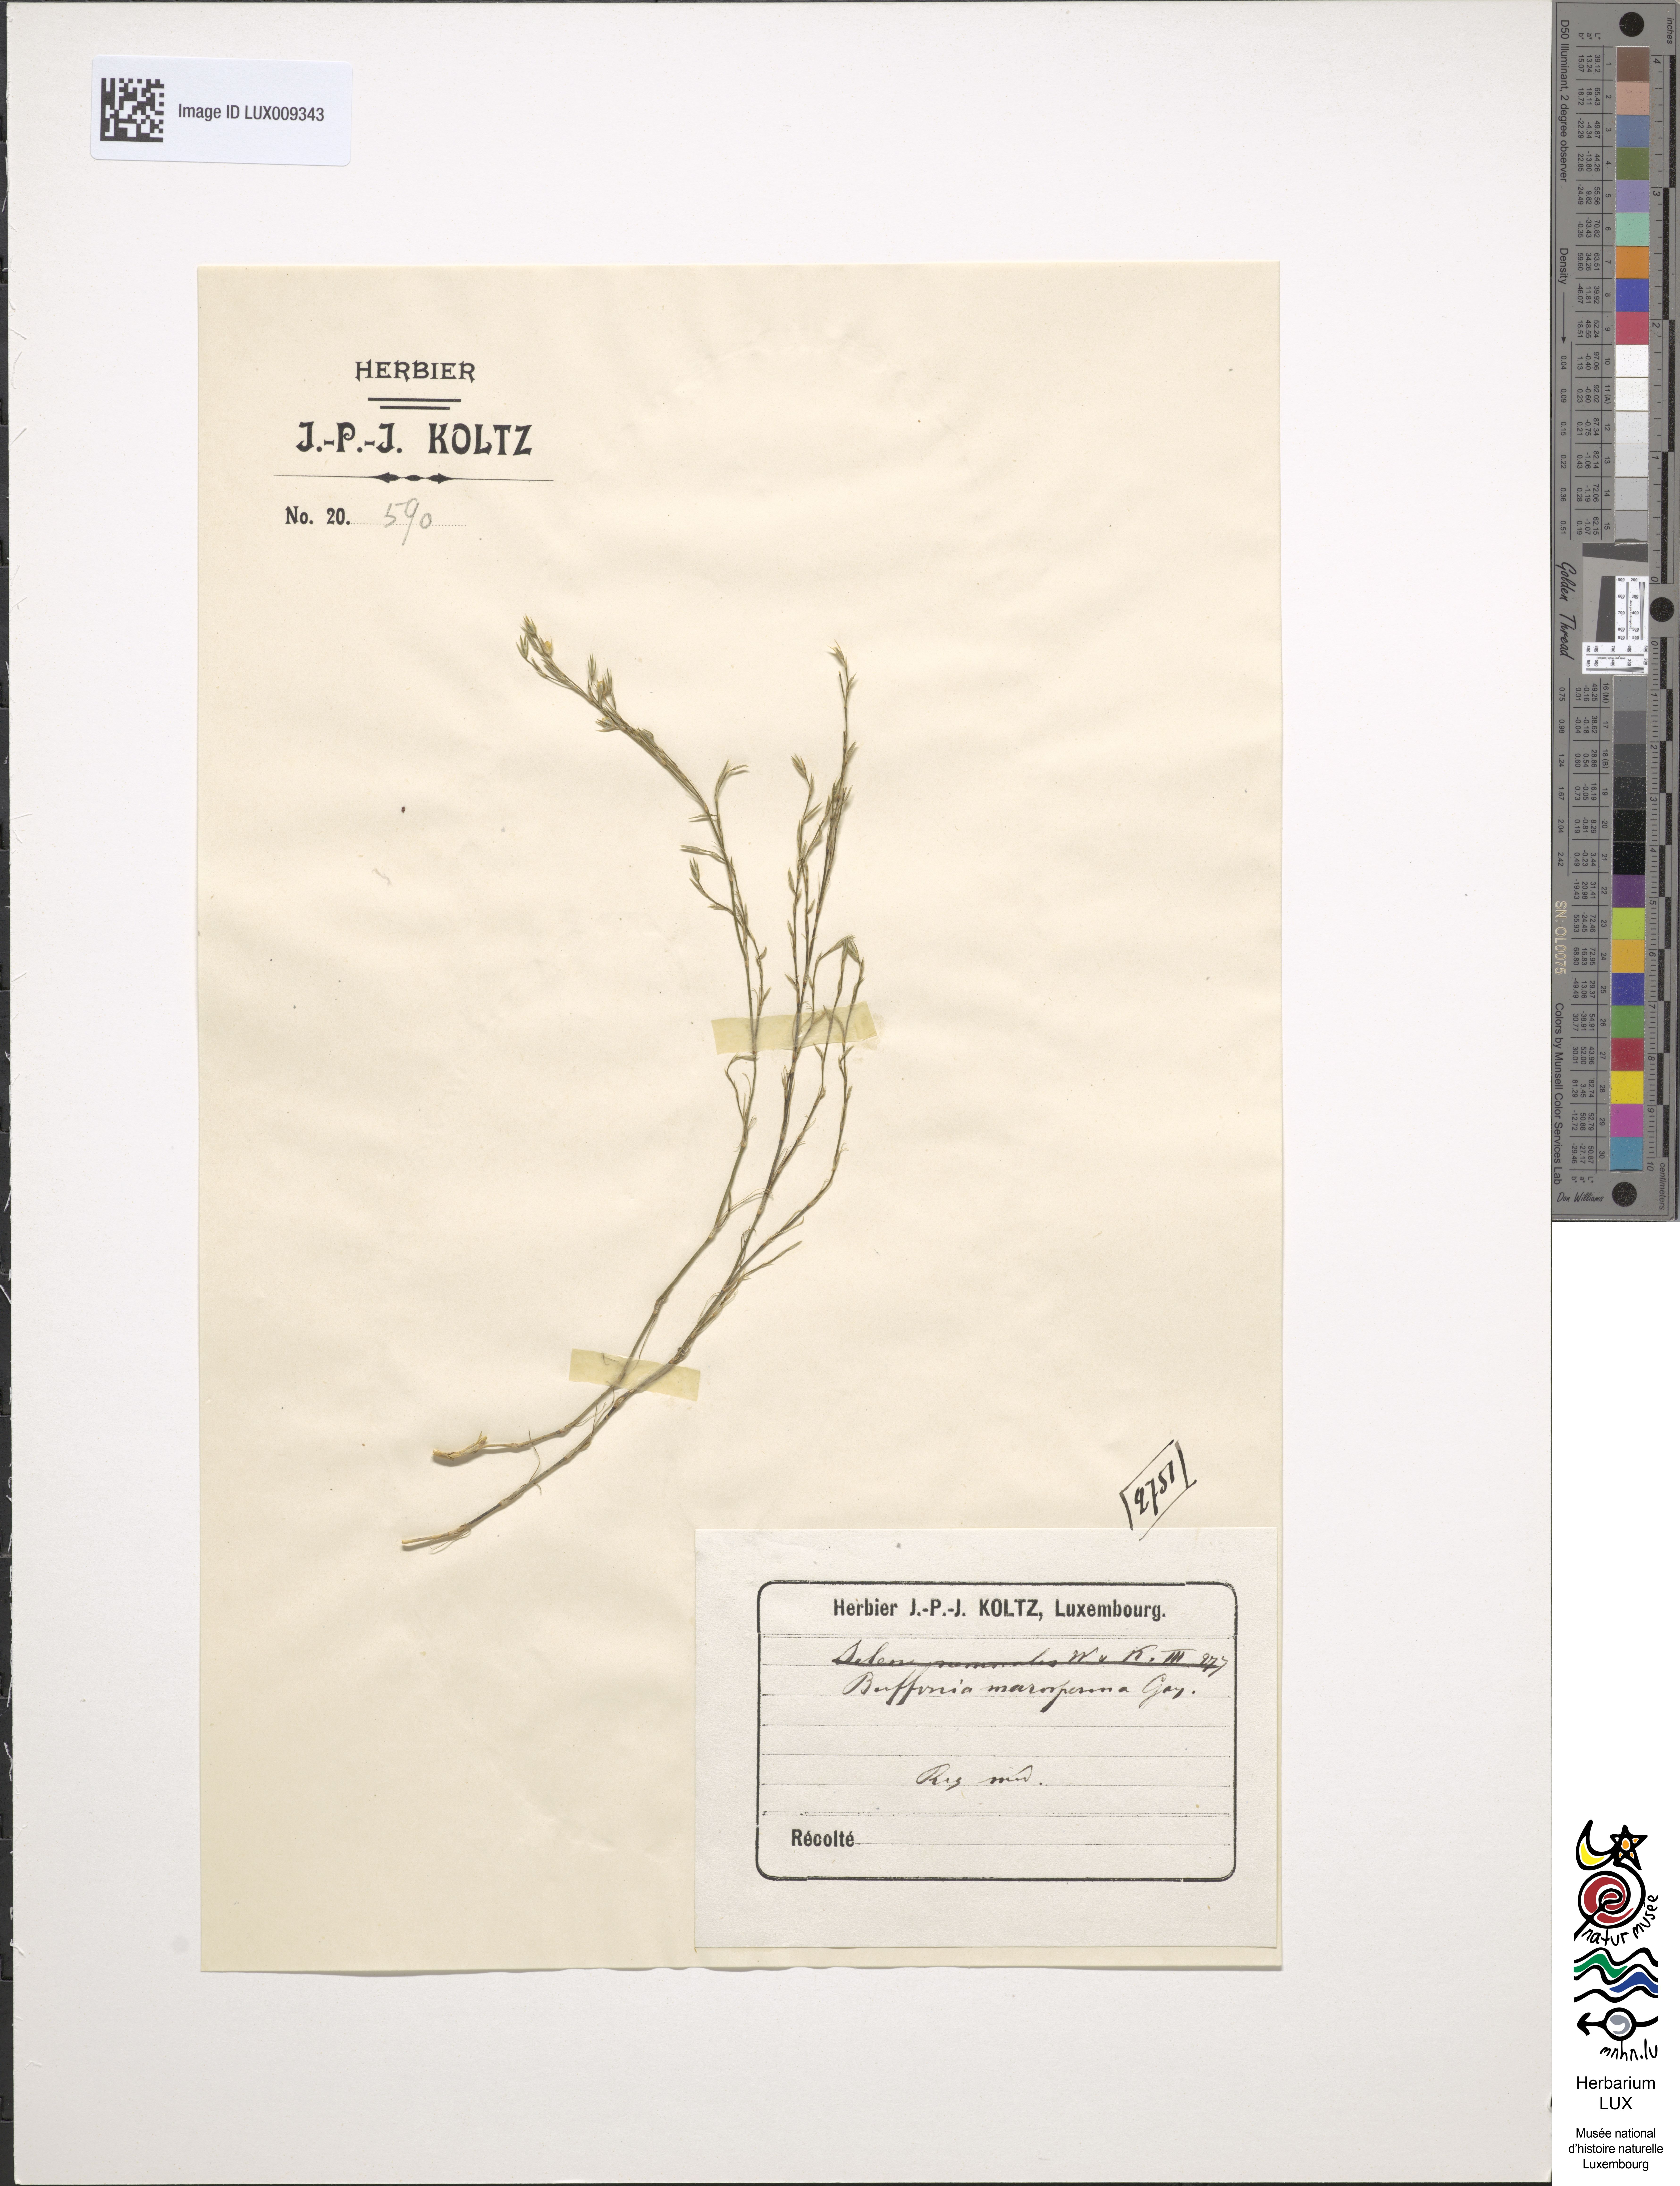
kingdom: Plantae
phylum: Tracheophyta
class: Magnoliopsida
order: Caryophyllales
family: Caryophyllaceae
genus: Bufonia
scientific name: Bufonia paniculata
